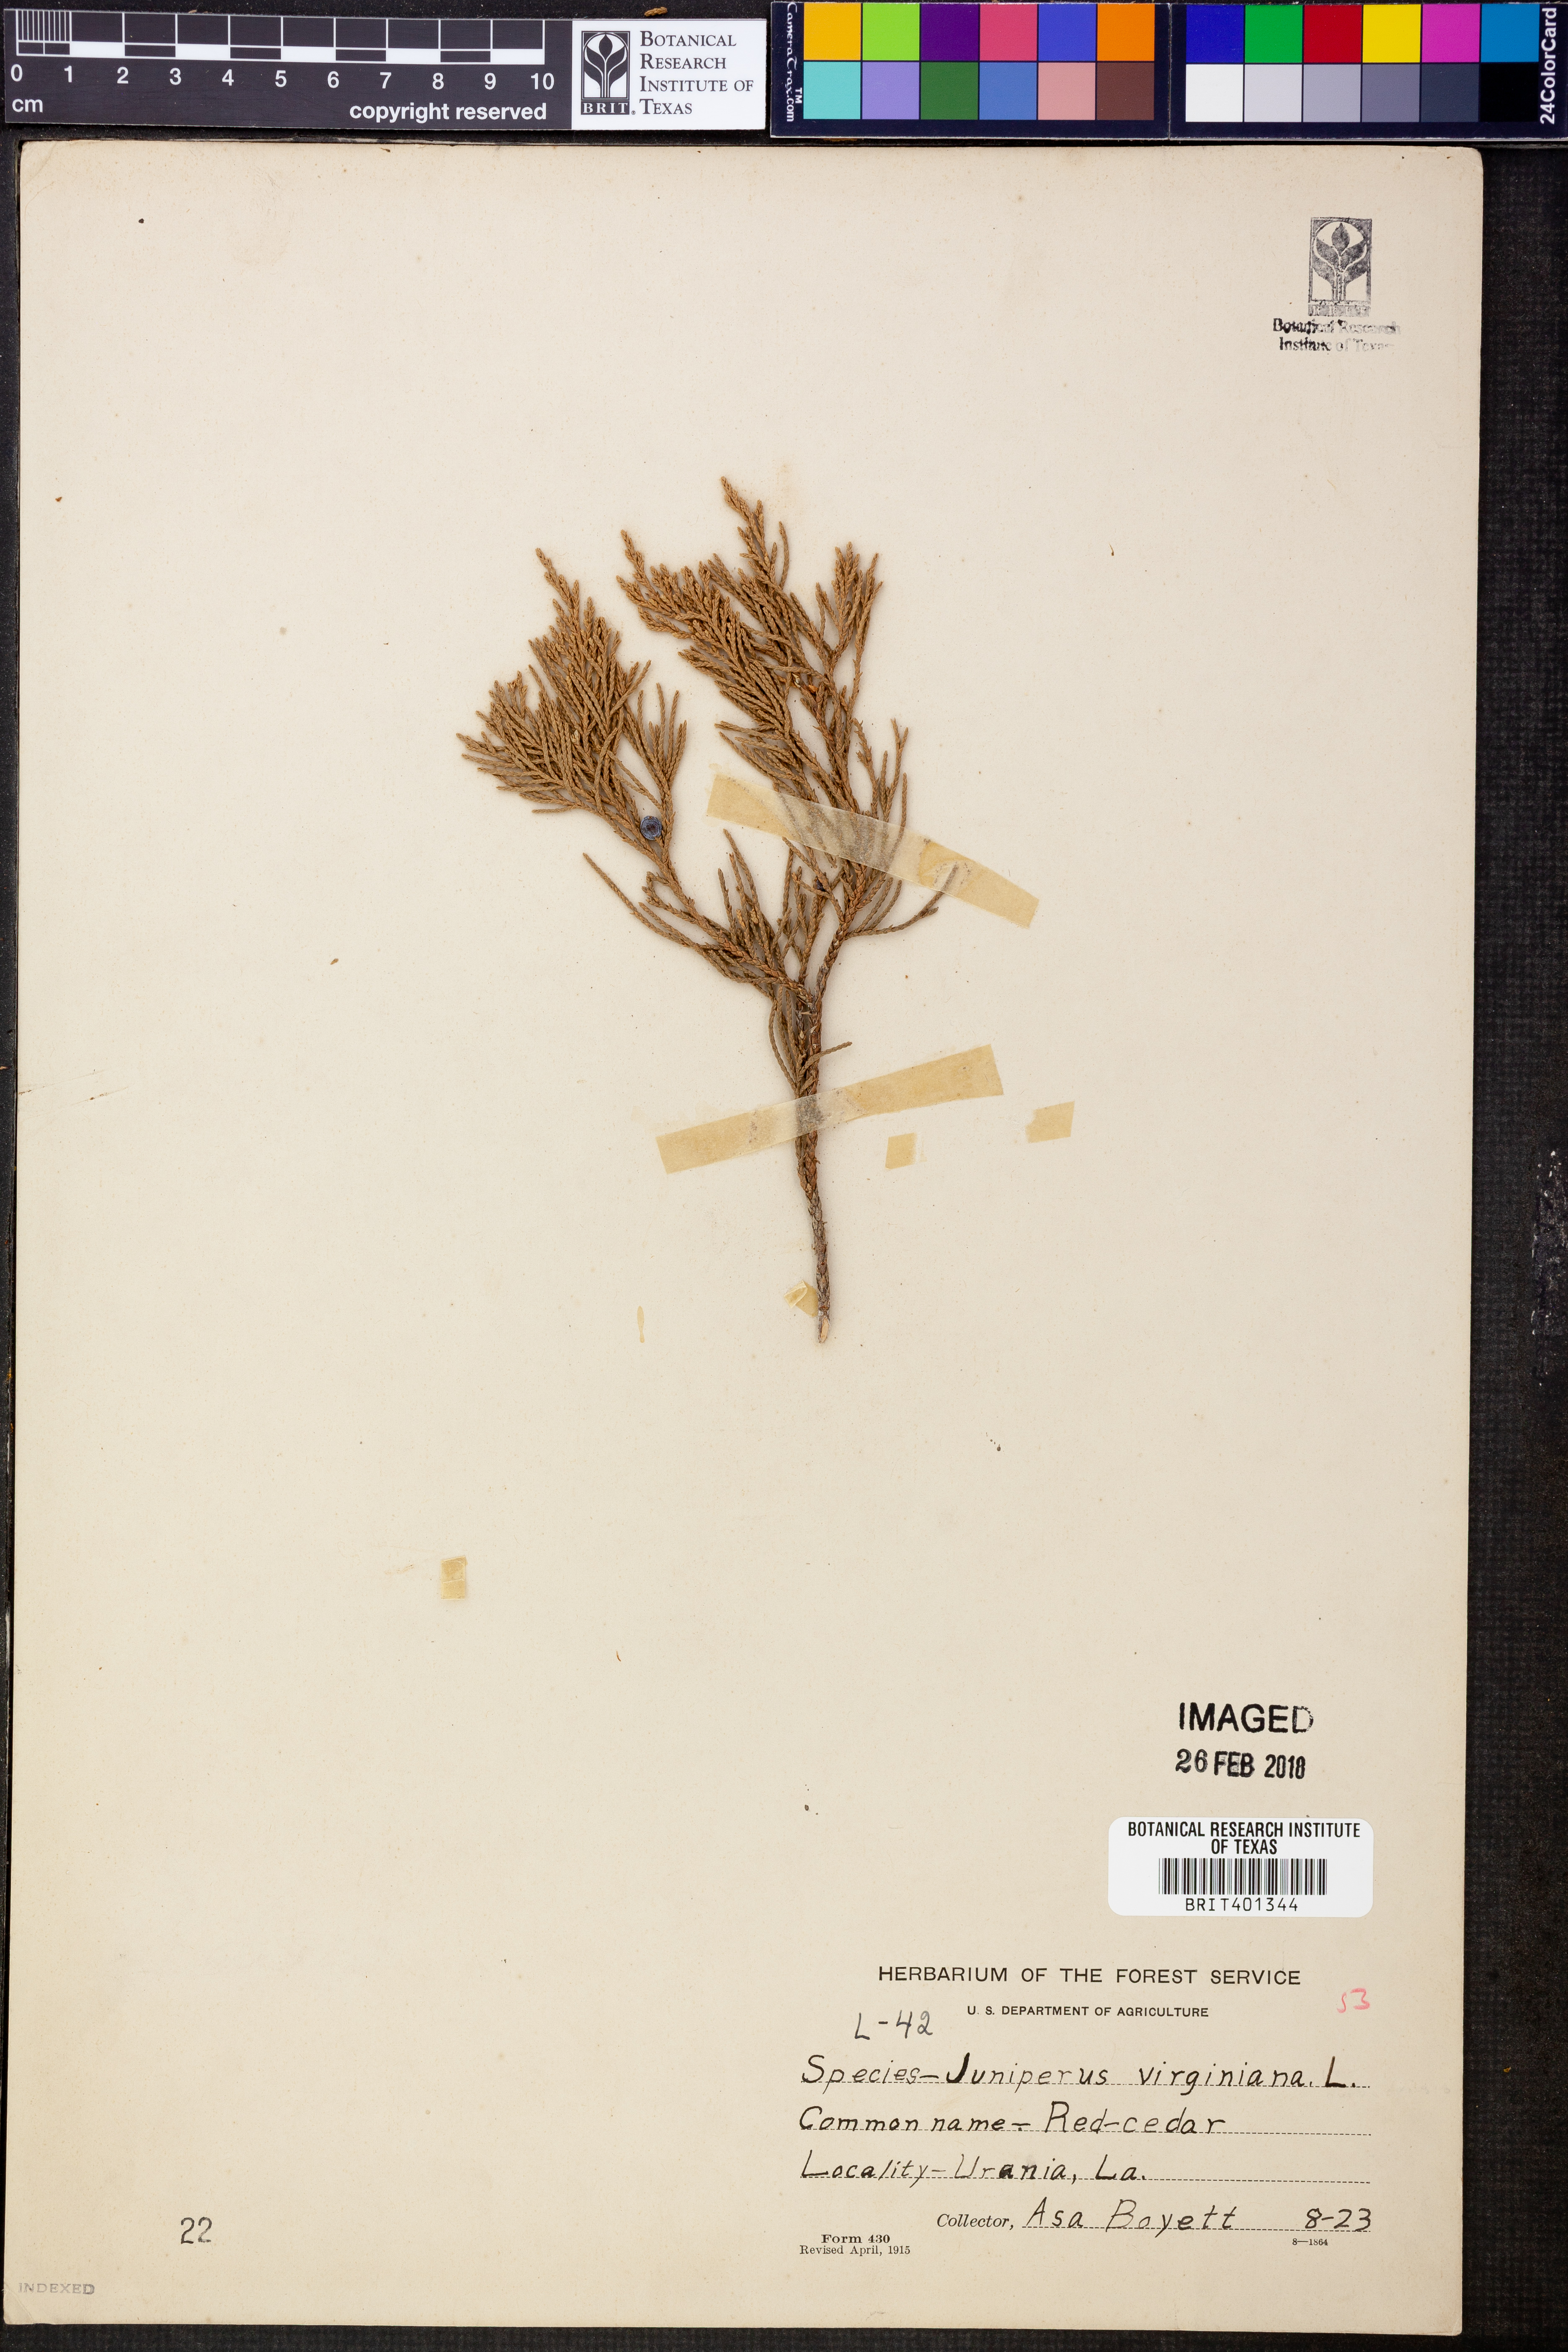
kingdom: Plantae
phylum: Tracheophyta
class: Pinopsida
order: Pinales
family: Cupressaceae
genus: Juniperus
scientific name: Juniperus virginiana
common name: Red juniper
